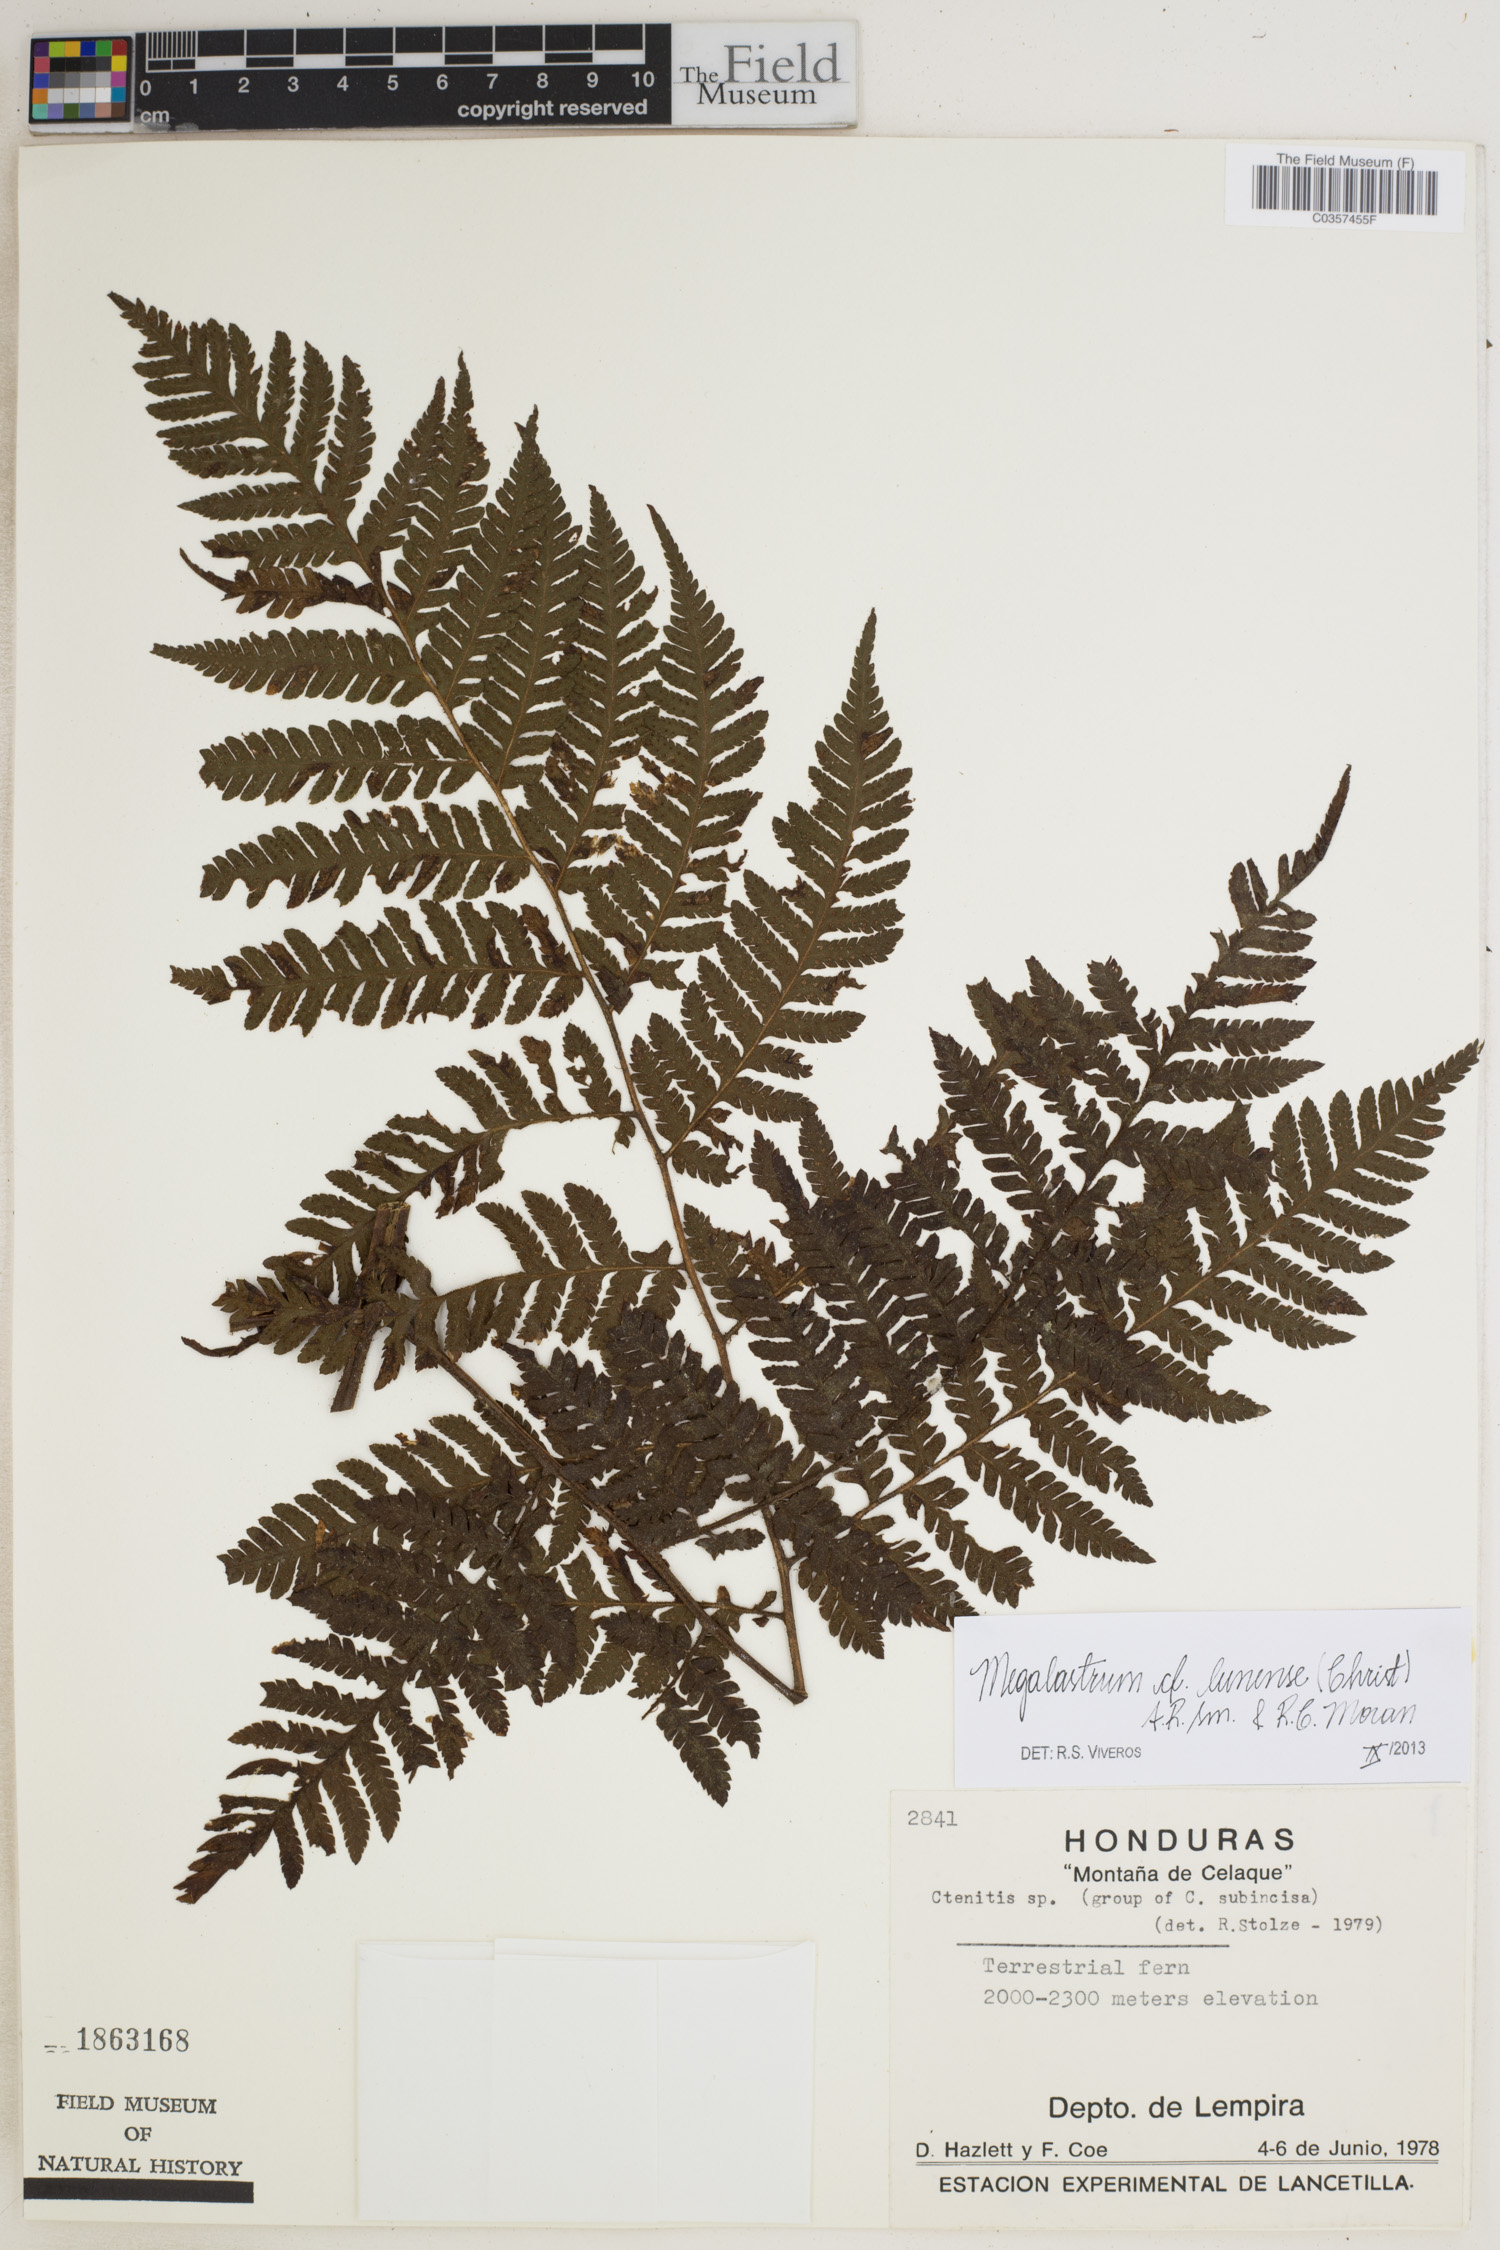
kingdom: Plantae
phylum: Tracheophyta
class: Polypodiopsida
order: Polypodiales
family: Dryopteridaceae
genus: Megalastrum
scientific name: Megalastrum lunense
